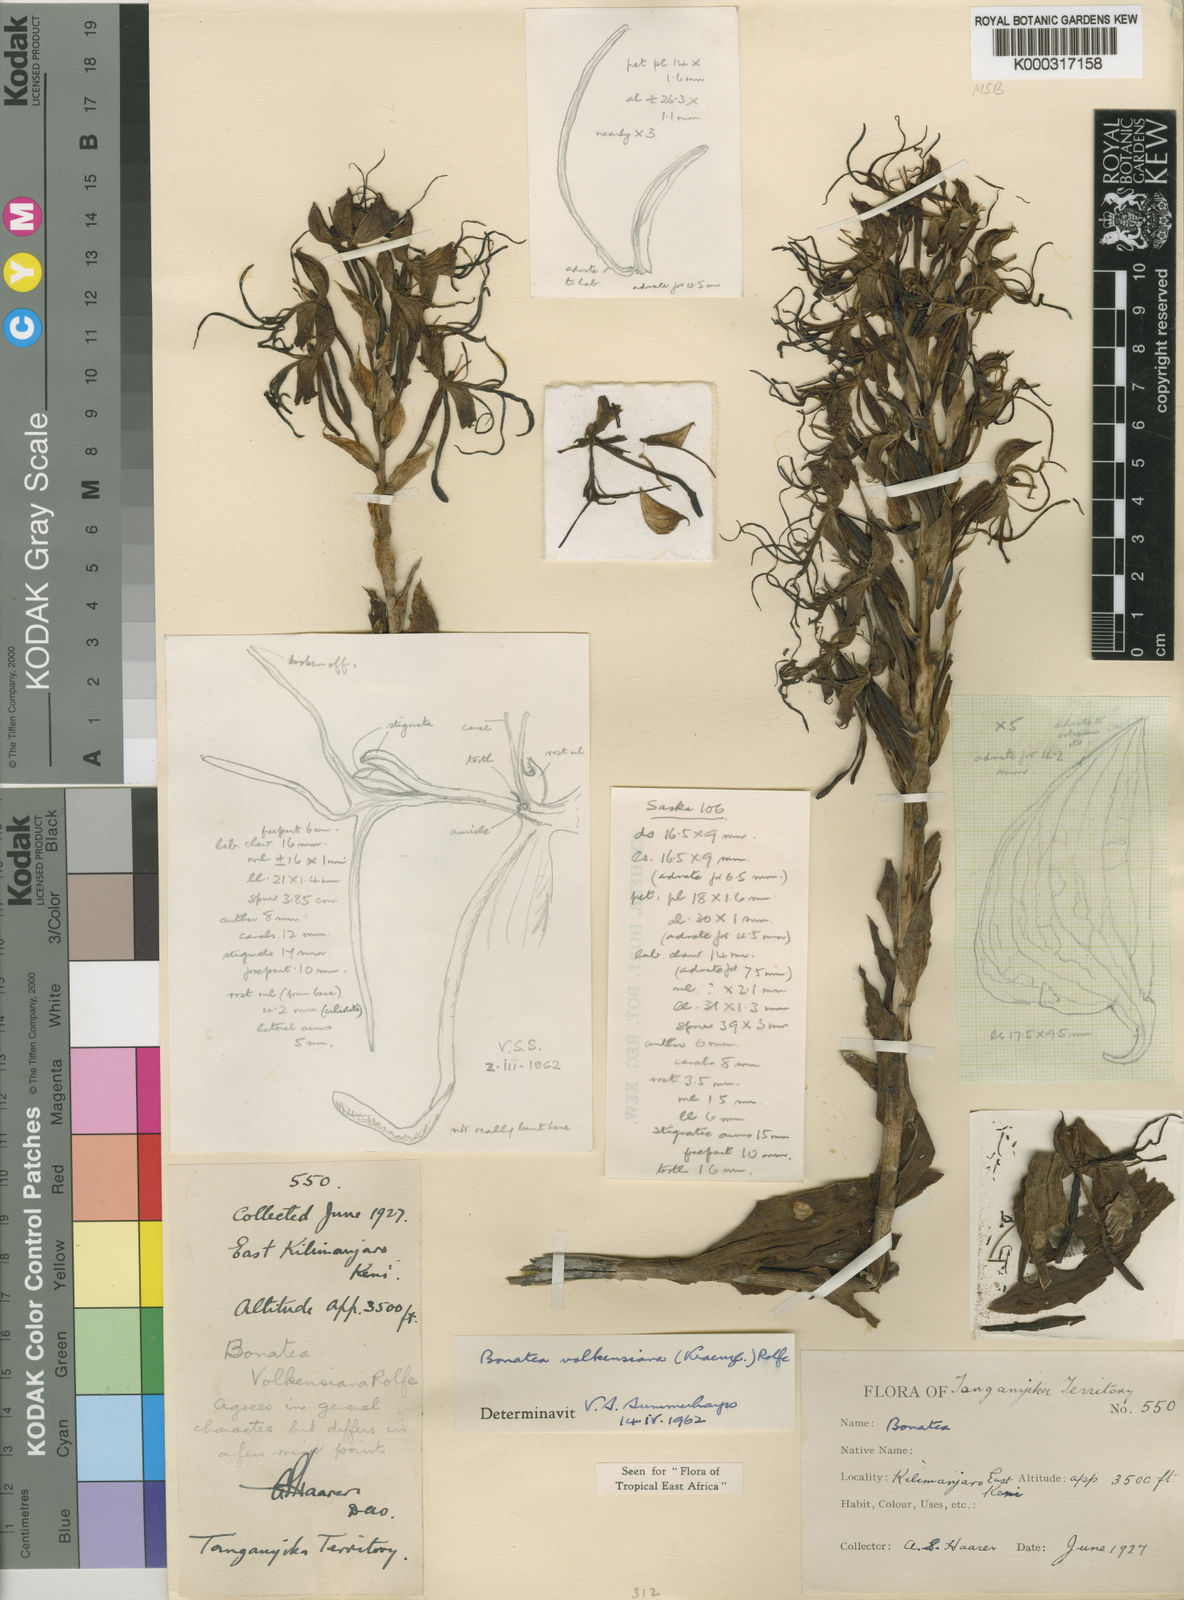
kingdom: Plantae
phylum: Tracheophyta
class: Liliopsida
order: Asparagales
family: Orchidaceae
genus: Bonatea
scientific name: Bonatea volkensiana
